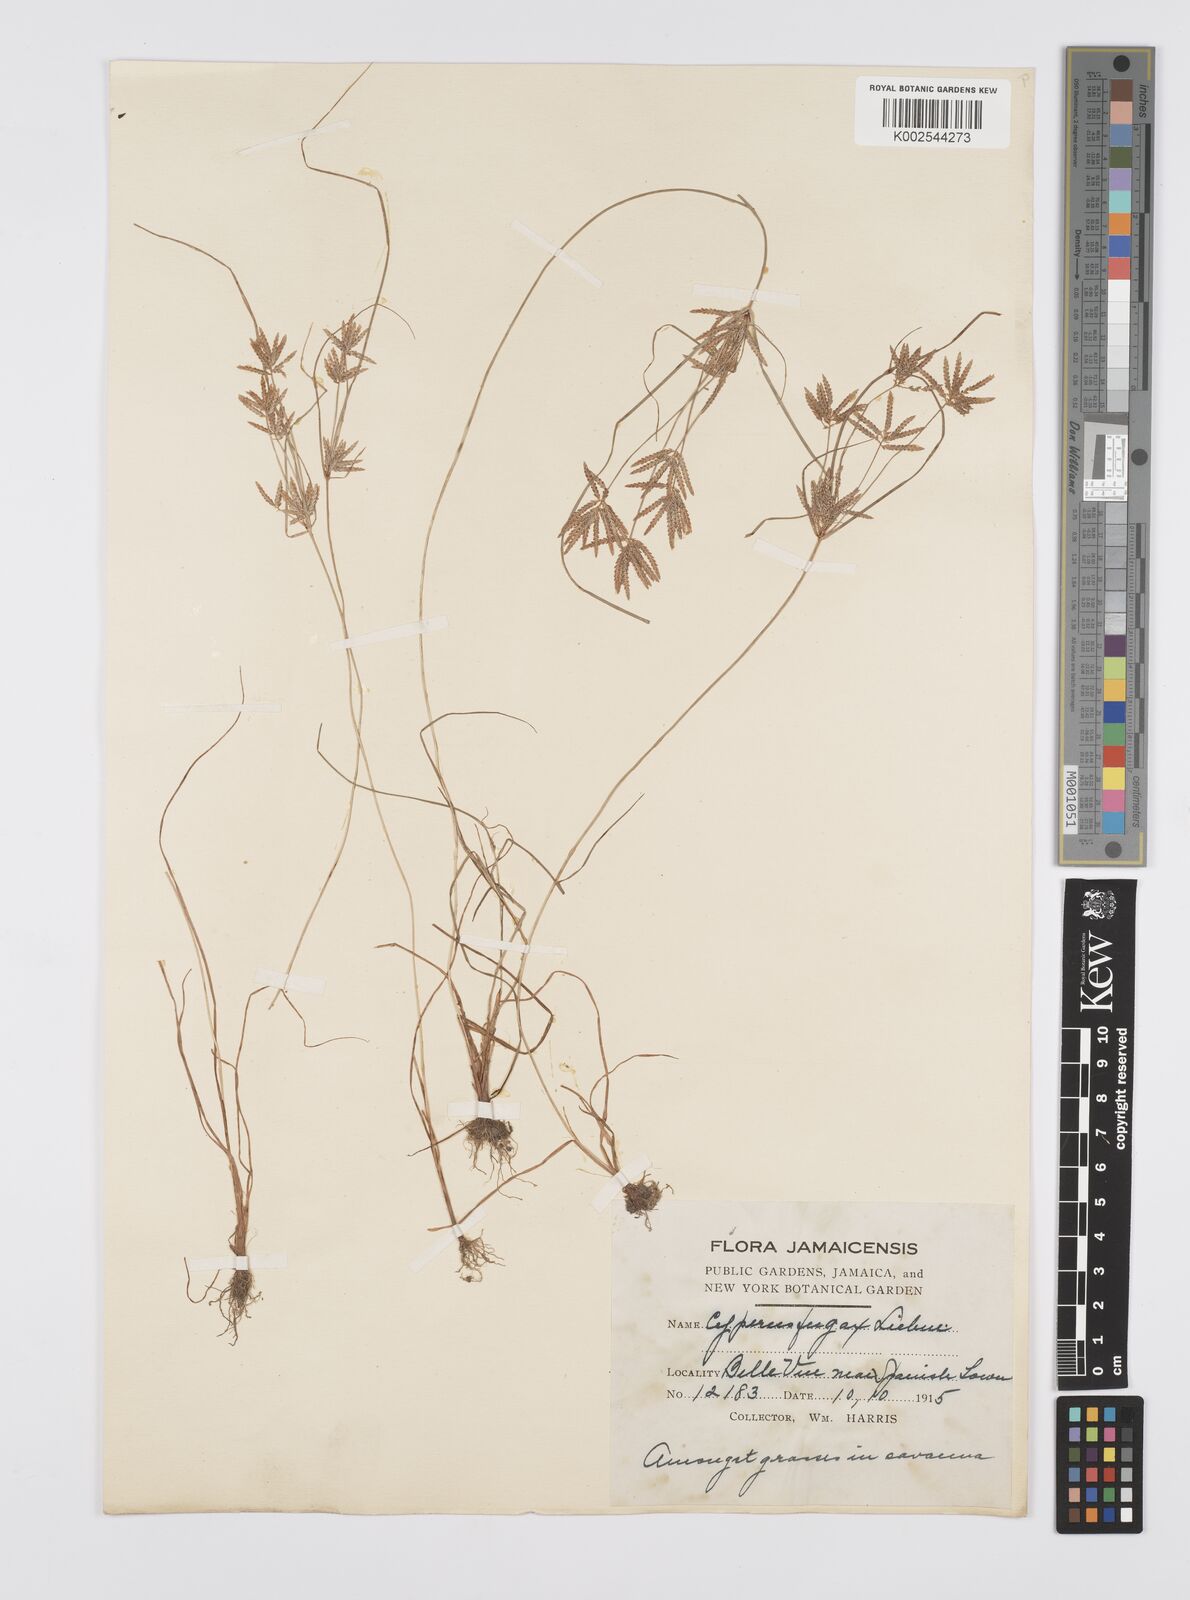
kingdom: Plantae
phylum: Tracheophyta
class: Liliopsida
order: Poales
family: Cyperaceae
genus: Cyperus
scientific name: Cyperus polystachyos
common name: Bunchy flat sedge
